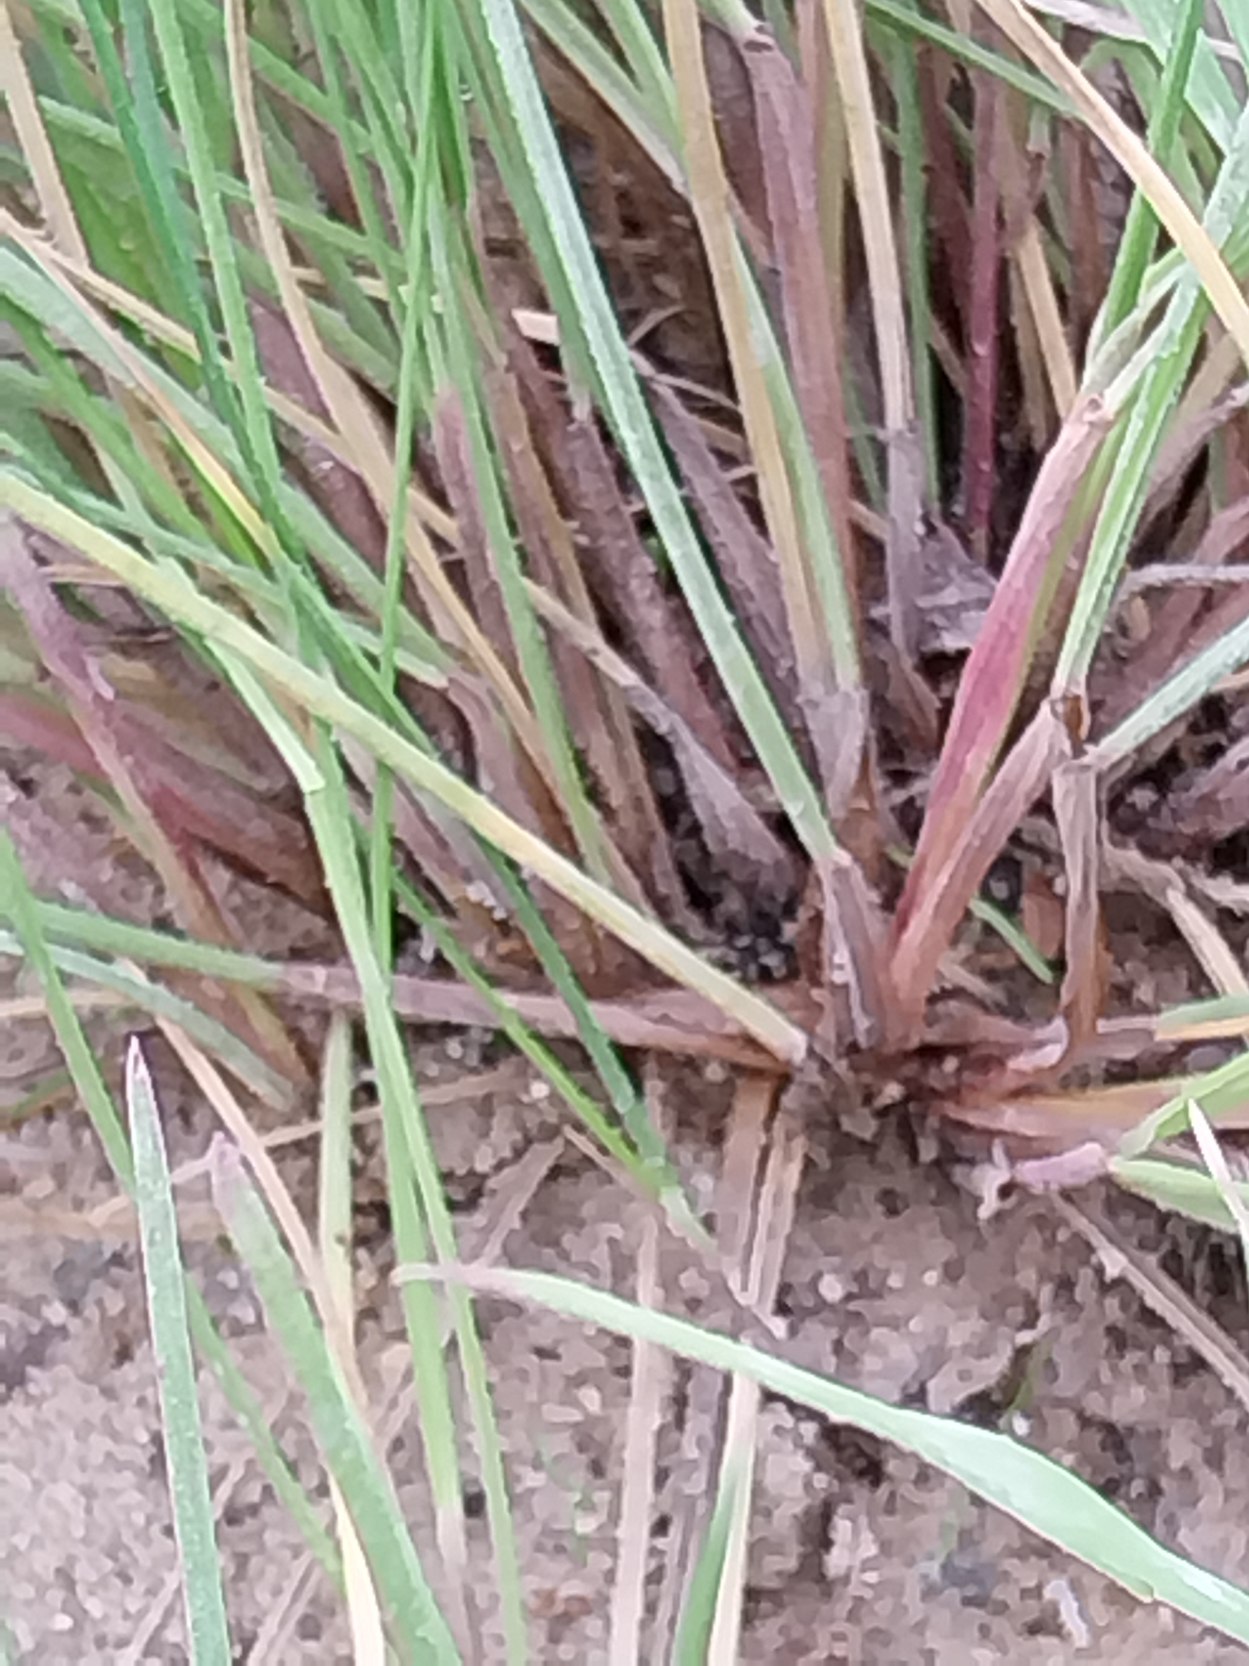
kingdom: Plantae
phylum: Tracheophyta
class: Liliopsida
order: Poales
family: Poaceae
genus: Festuca
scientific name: Festuca nigrescens
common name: Vej-svingel
